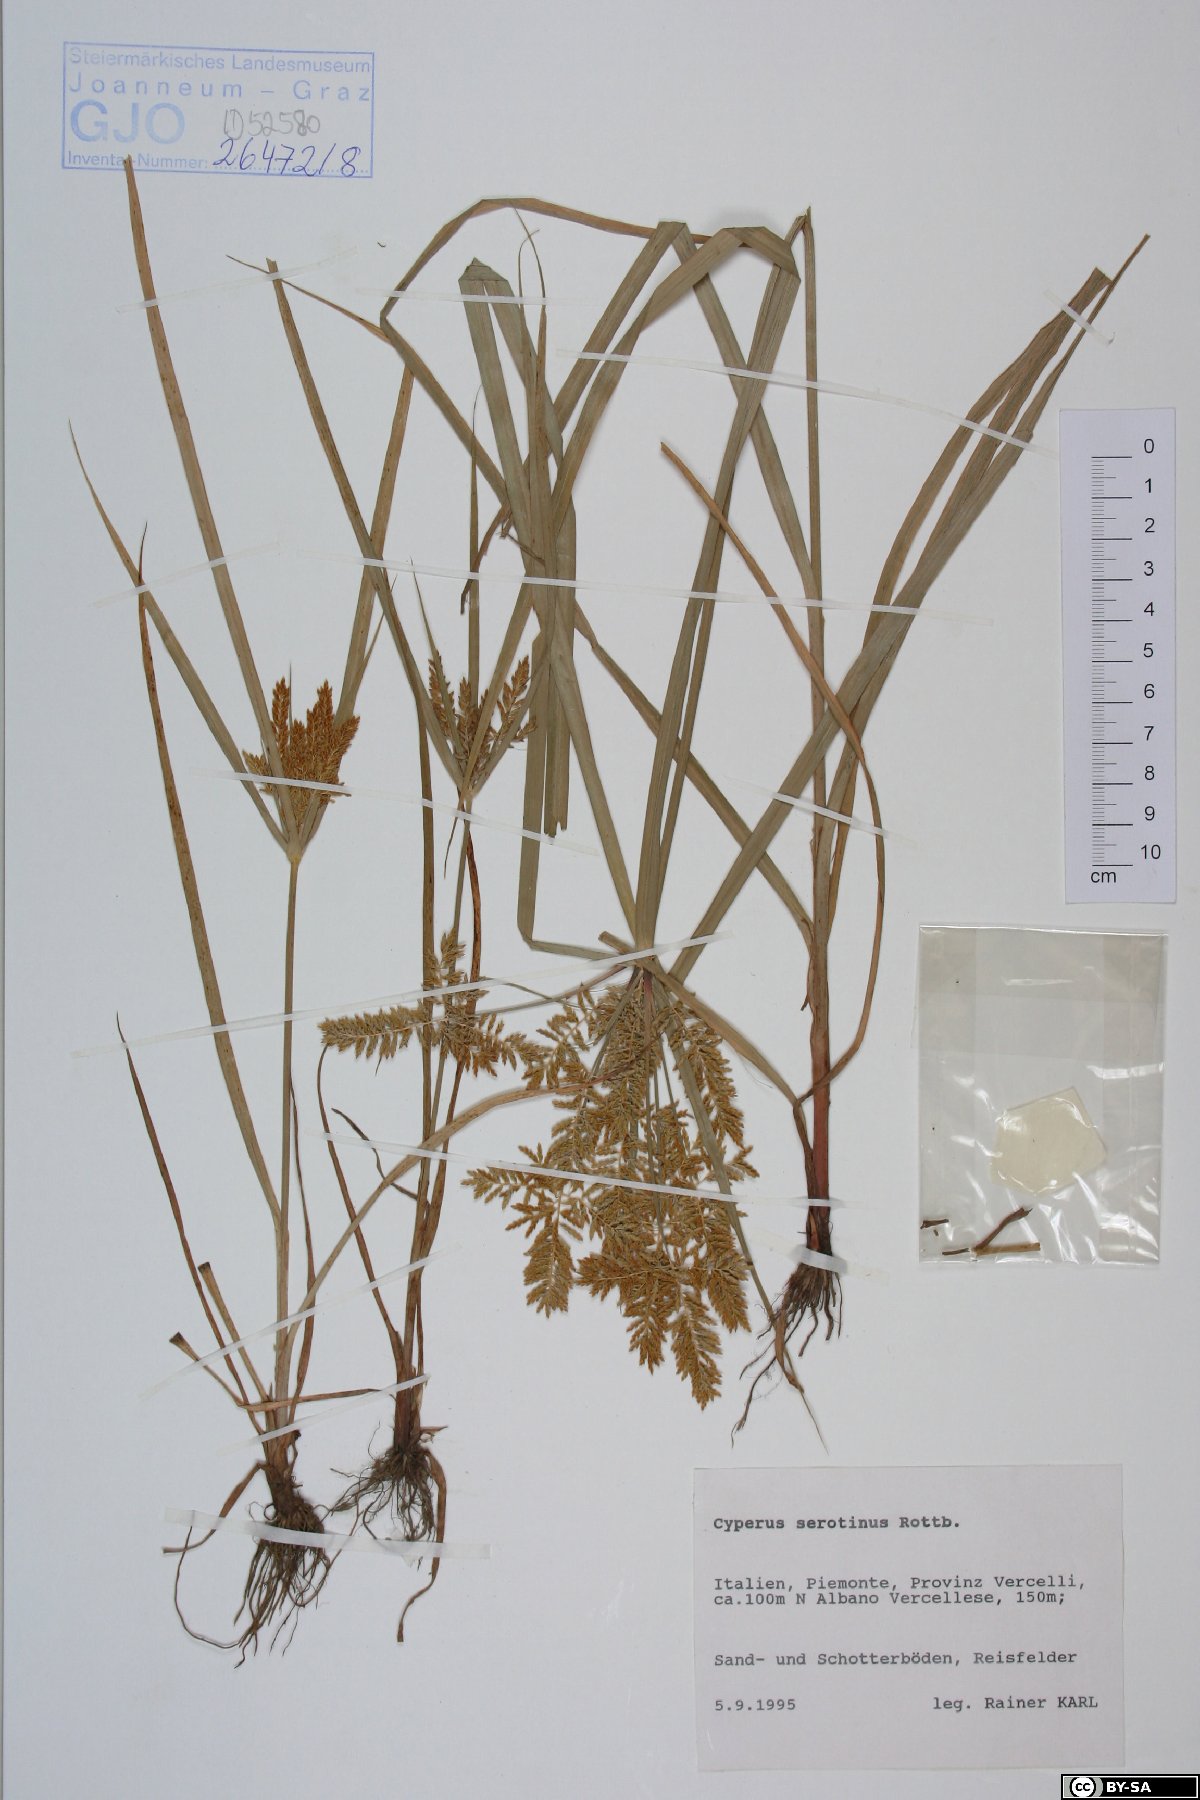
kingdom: Plantae
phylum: Tracheophyta
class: Liliopsida
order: Poales
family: Cyperaceae
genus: Cyperus
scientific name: Cyperus serotinus
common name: Tidalmarsh flatsedge
